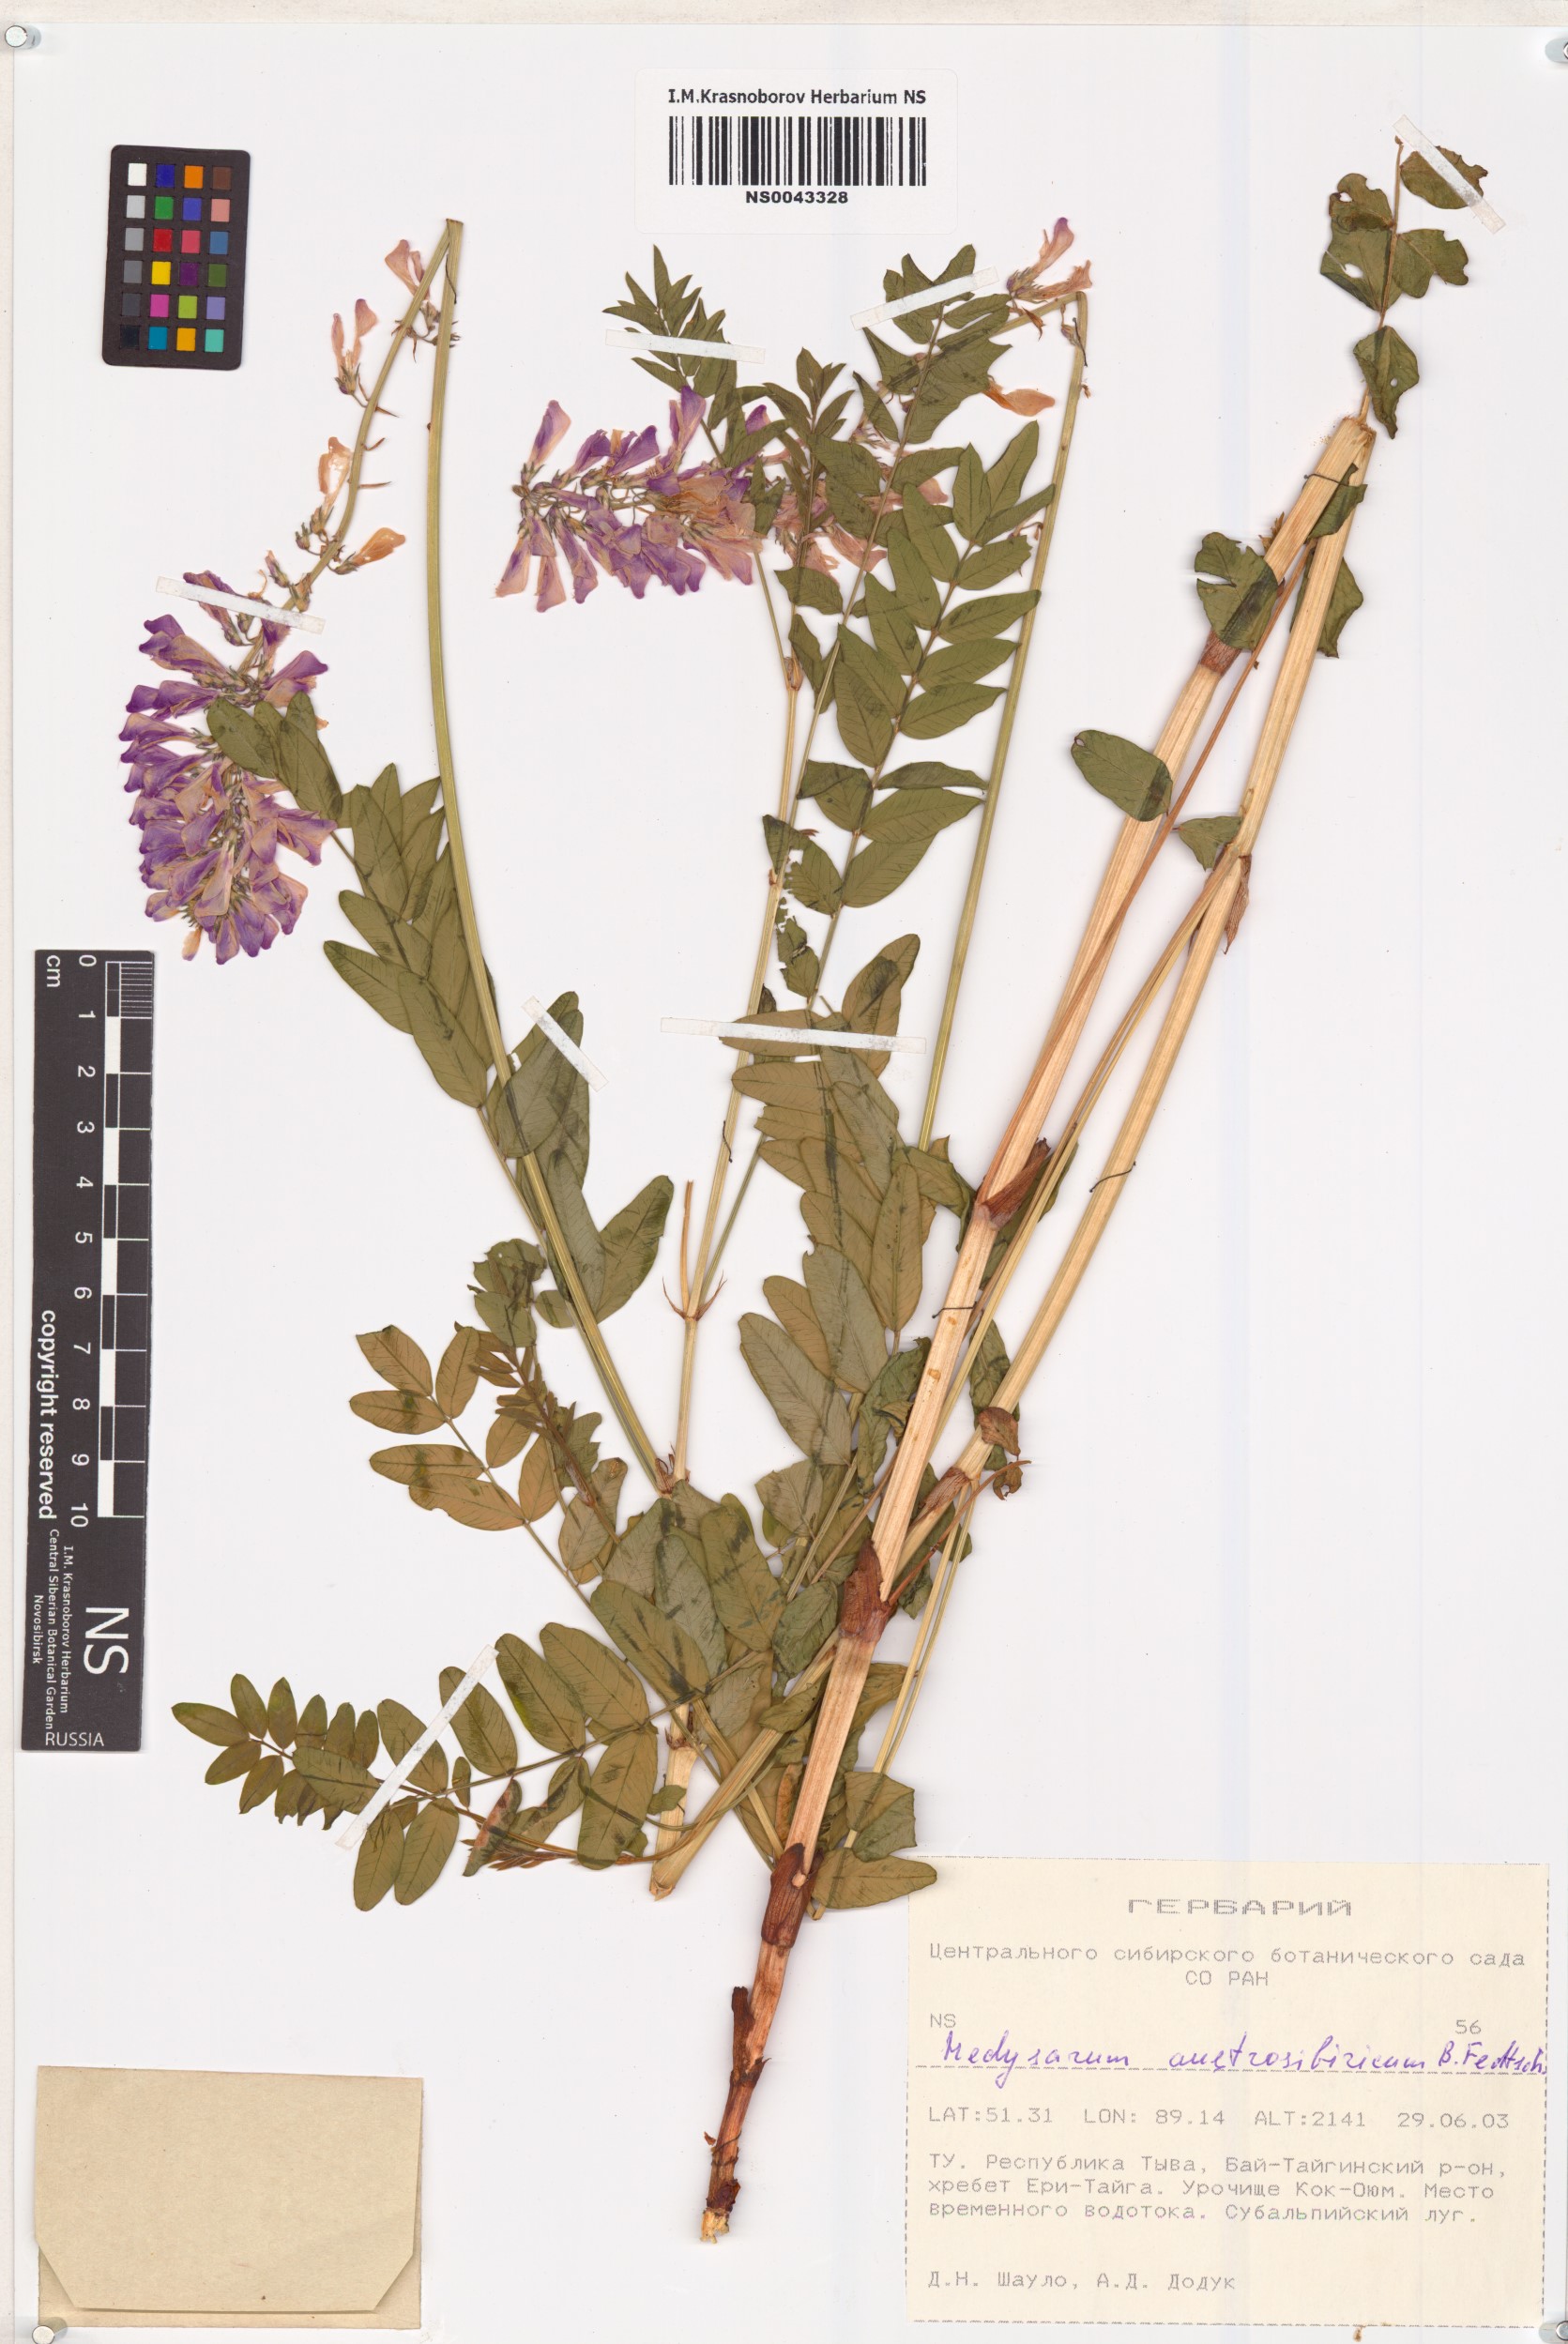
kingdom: Plantae
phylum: Tracheophyta
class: Magnoliopsida
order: Fabales
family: Fabaceae
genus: Hedysarum
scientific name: Hedysarum neglectum
